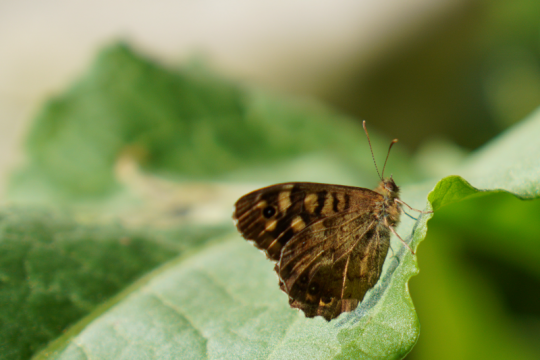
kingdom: Animalia
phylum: Arthropoda
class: Insecta
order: Lepidoptera
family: Nymphalidae
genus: Pararge
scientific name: Pararge aegeria
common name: Speckled Wood Butterfly
